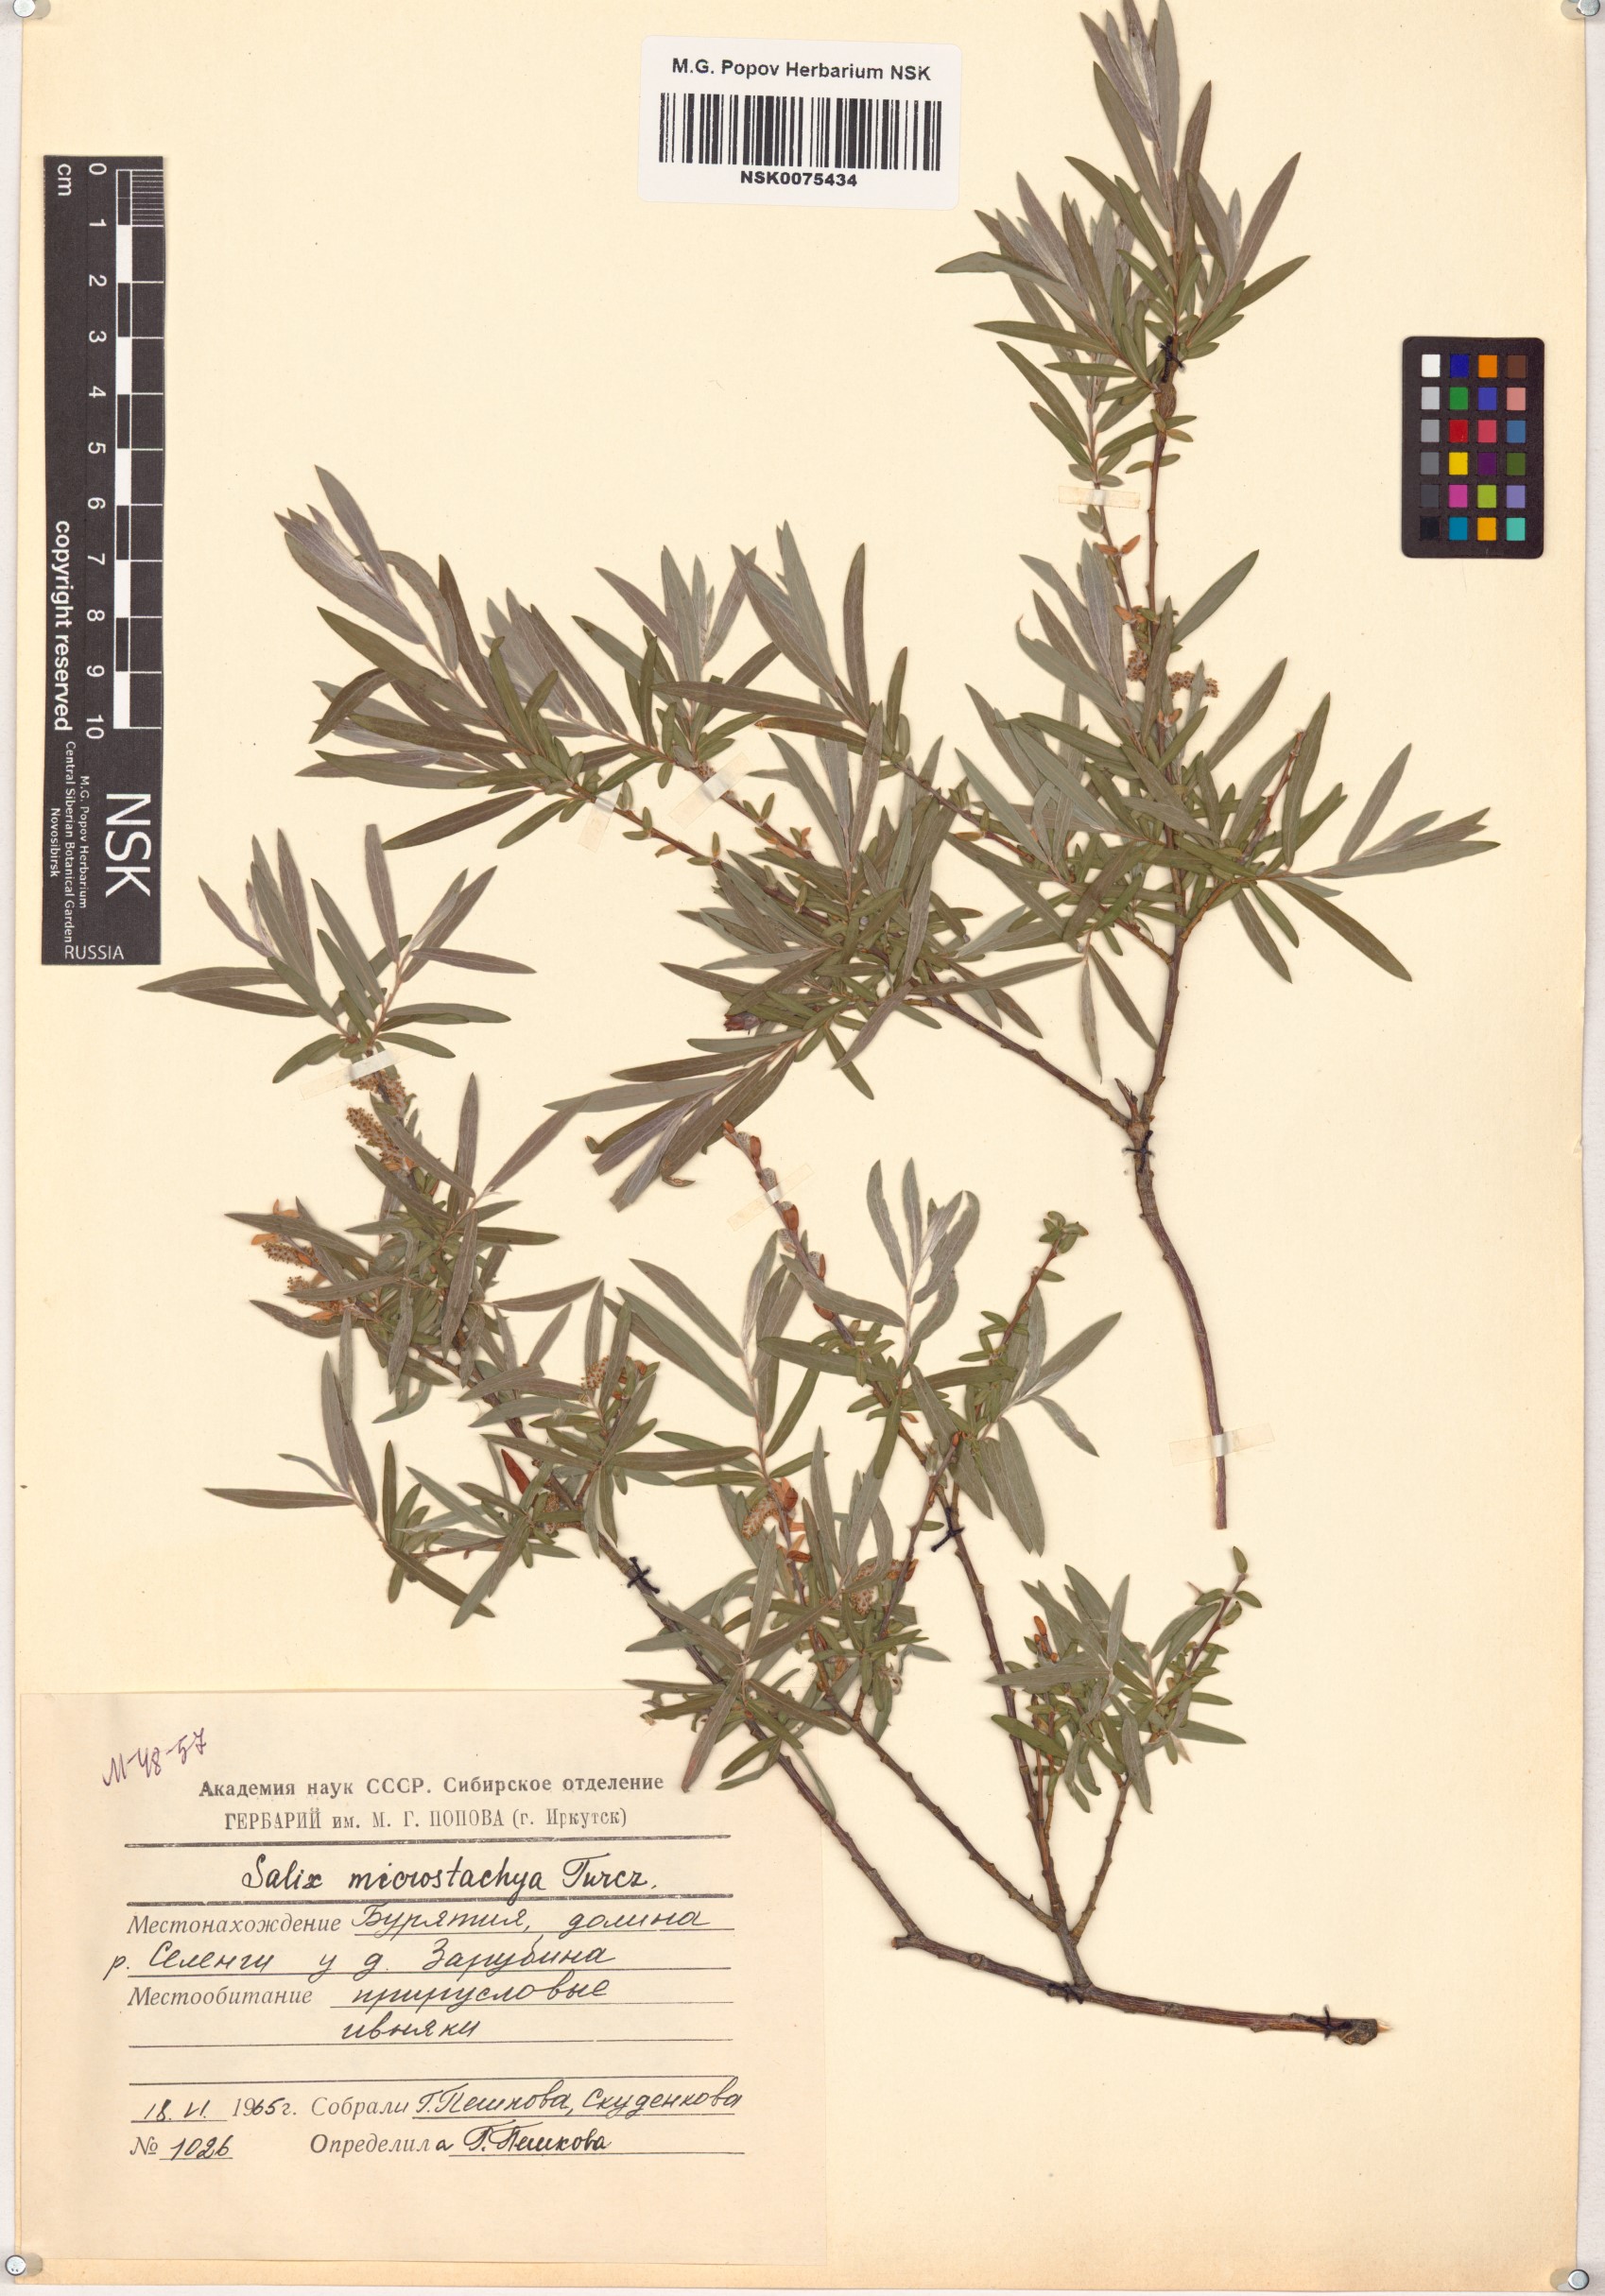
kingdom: Plantae
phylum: Tracheophyta
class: Magnoliopsida
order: Malpighiales
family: Salicaceae
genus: Salix
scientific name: Salix microstachya
